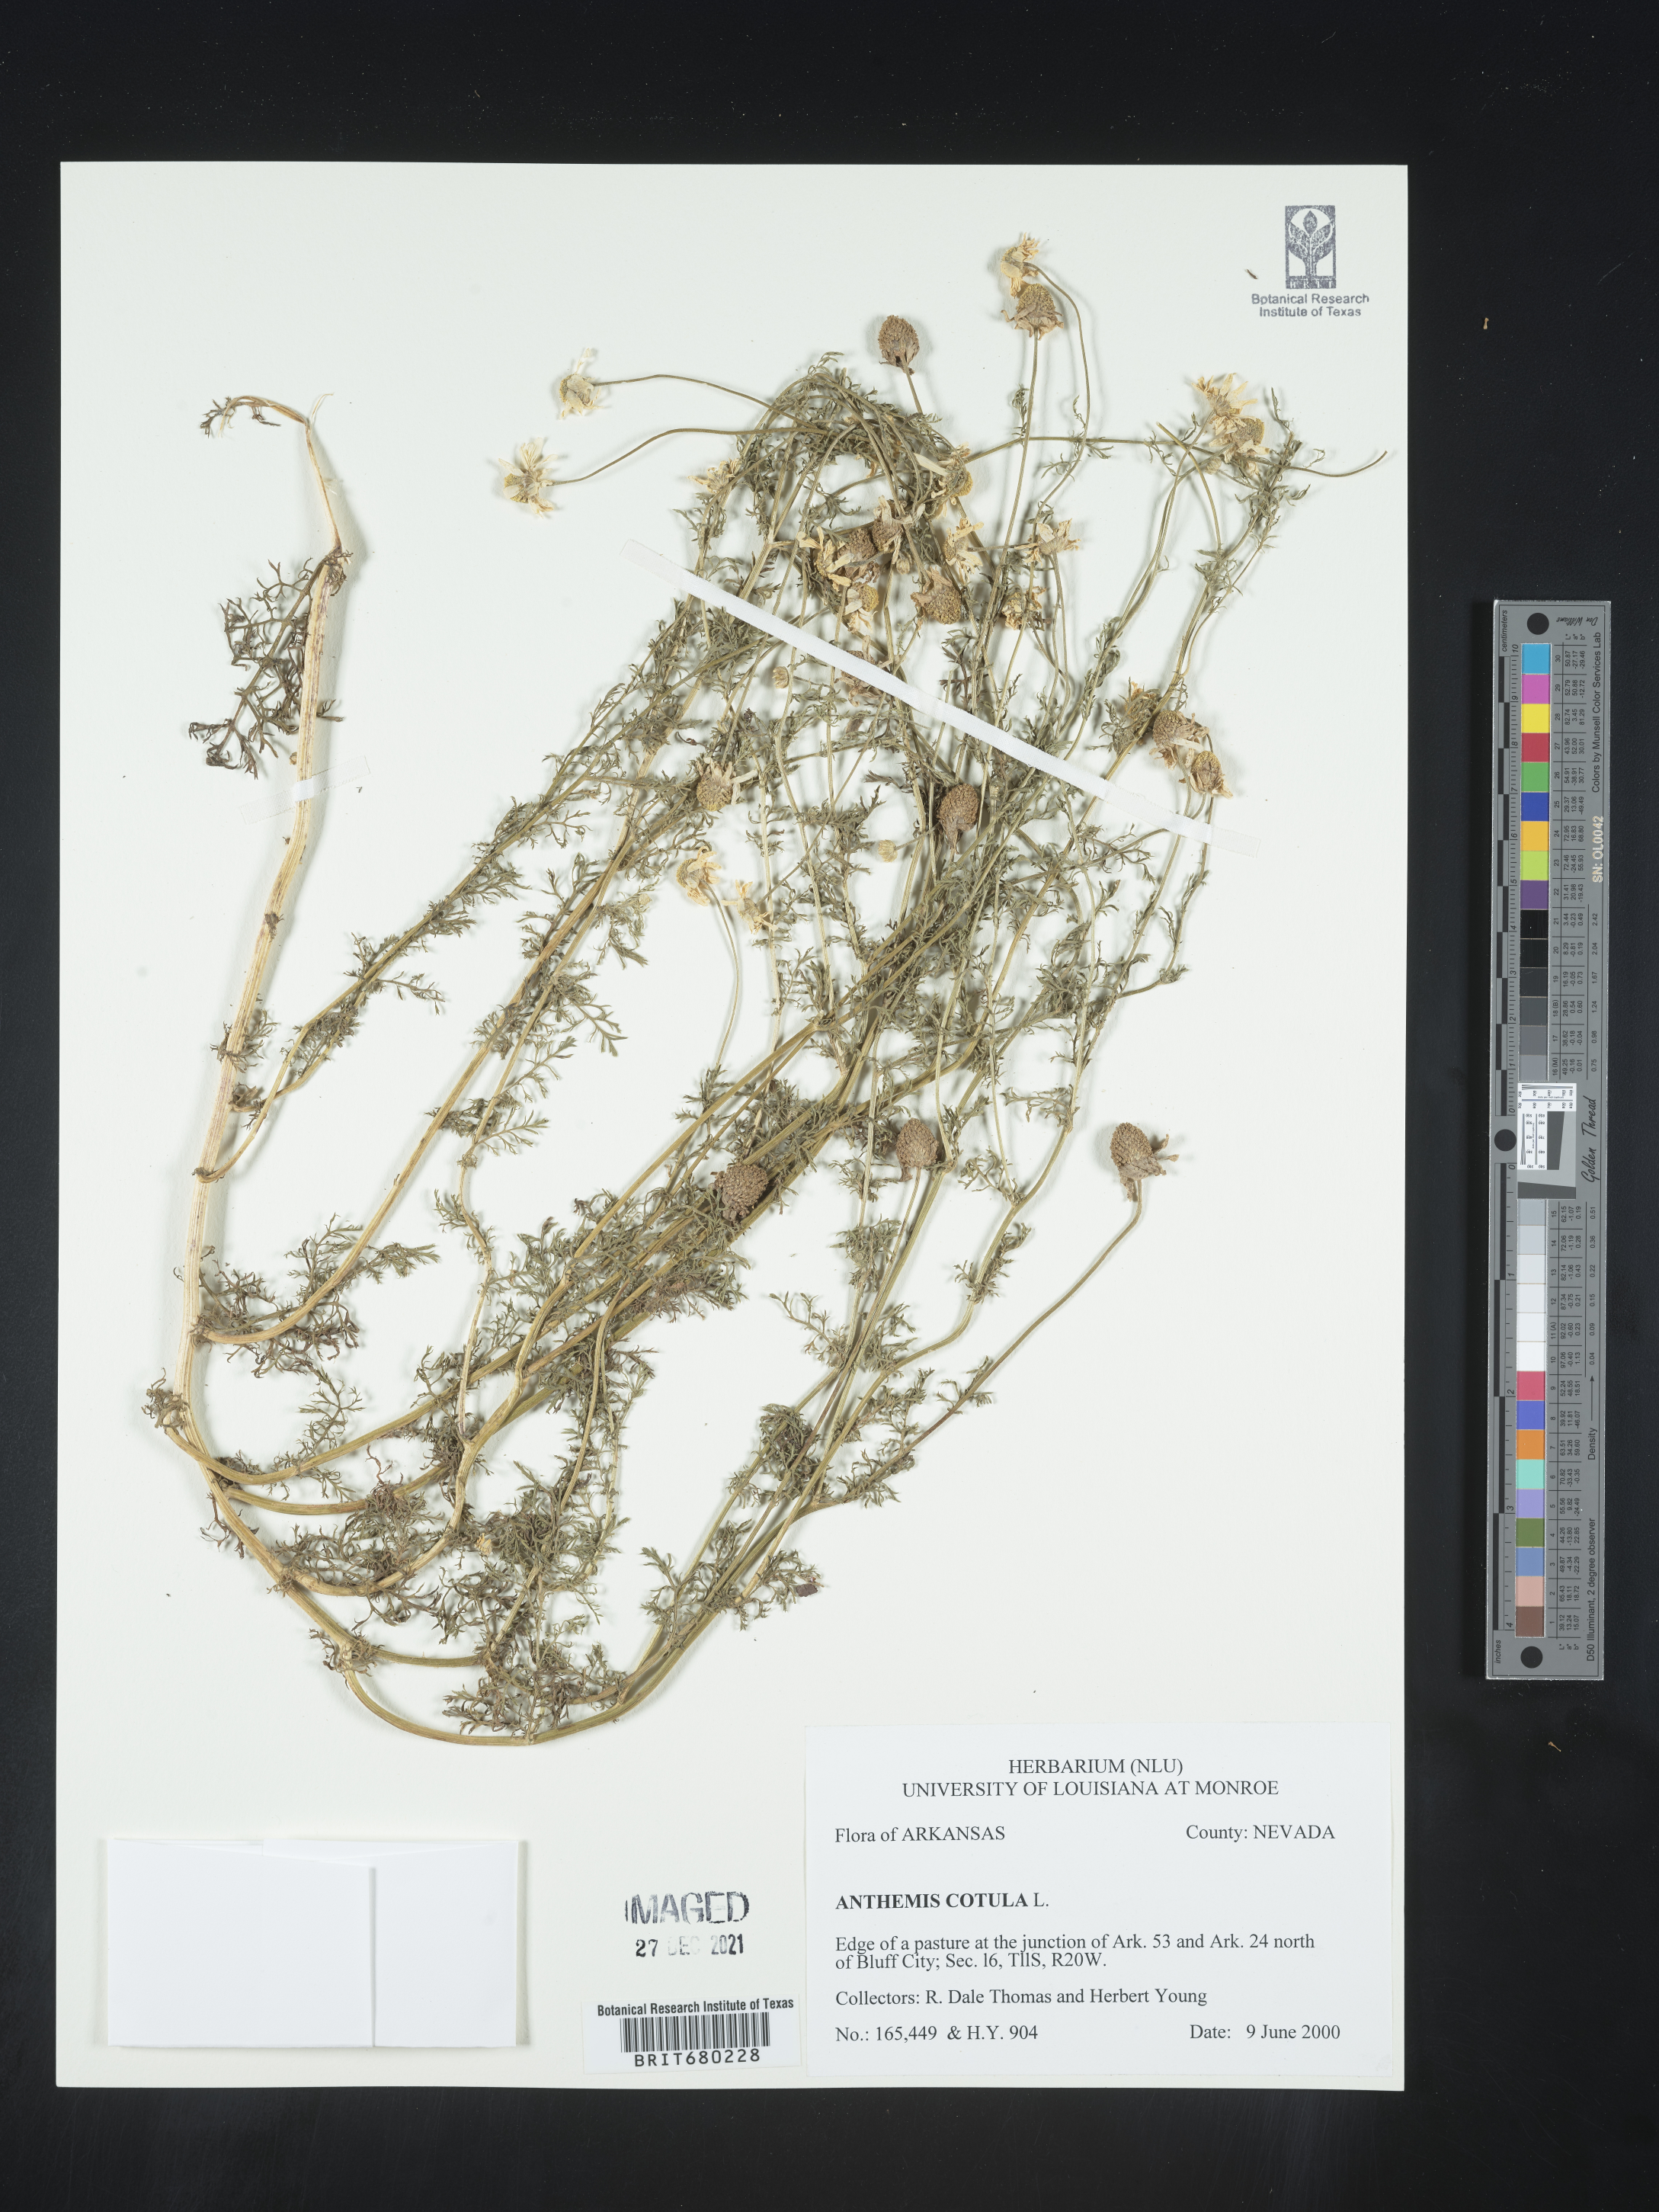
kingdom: Plantae
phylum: Tracheophyta
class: Magnoliopsida
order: Asterales
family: Asteraceae
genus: Anthemis
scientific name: Anthemis cotula
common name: Stinking chamomile
